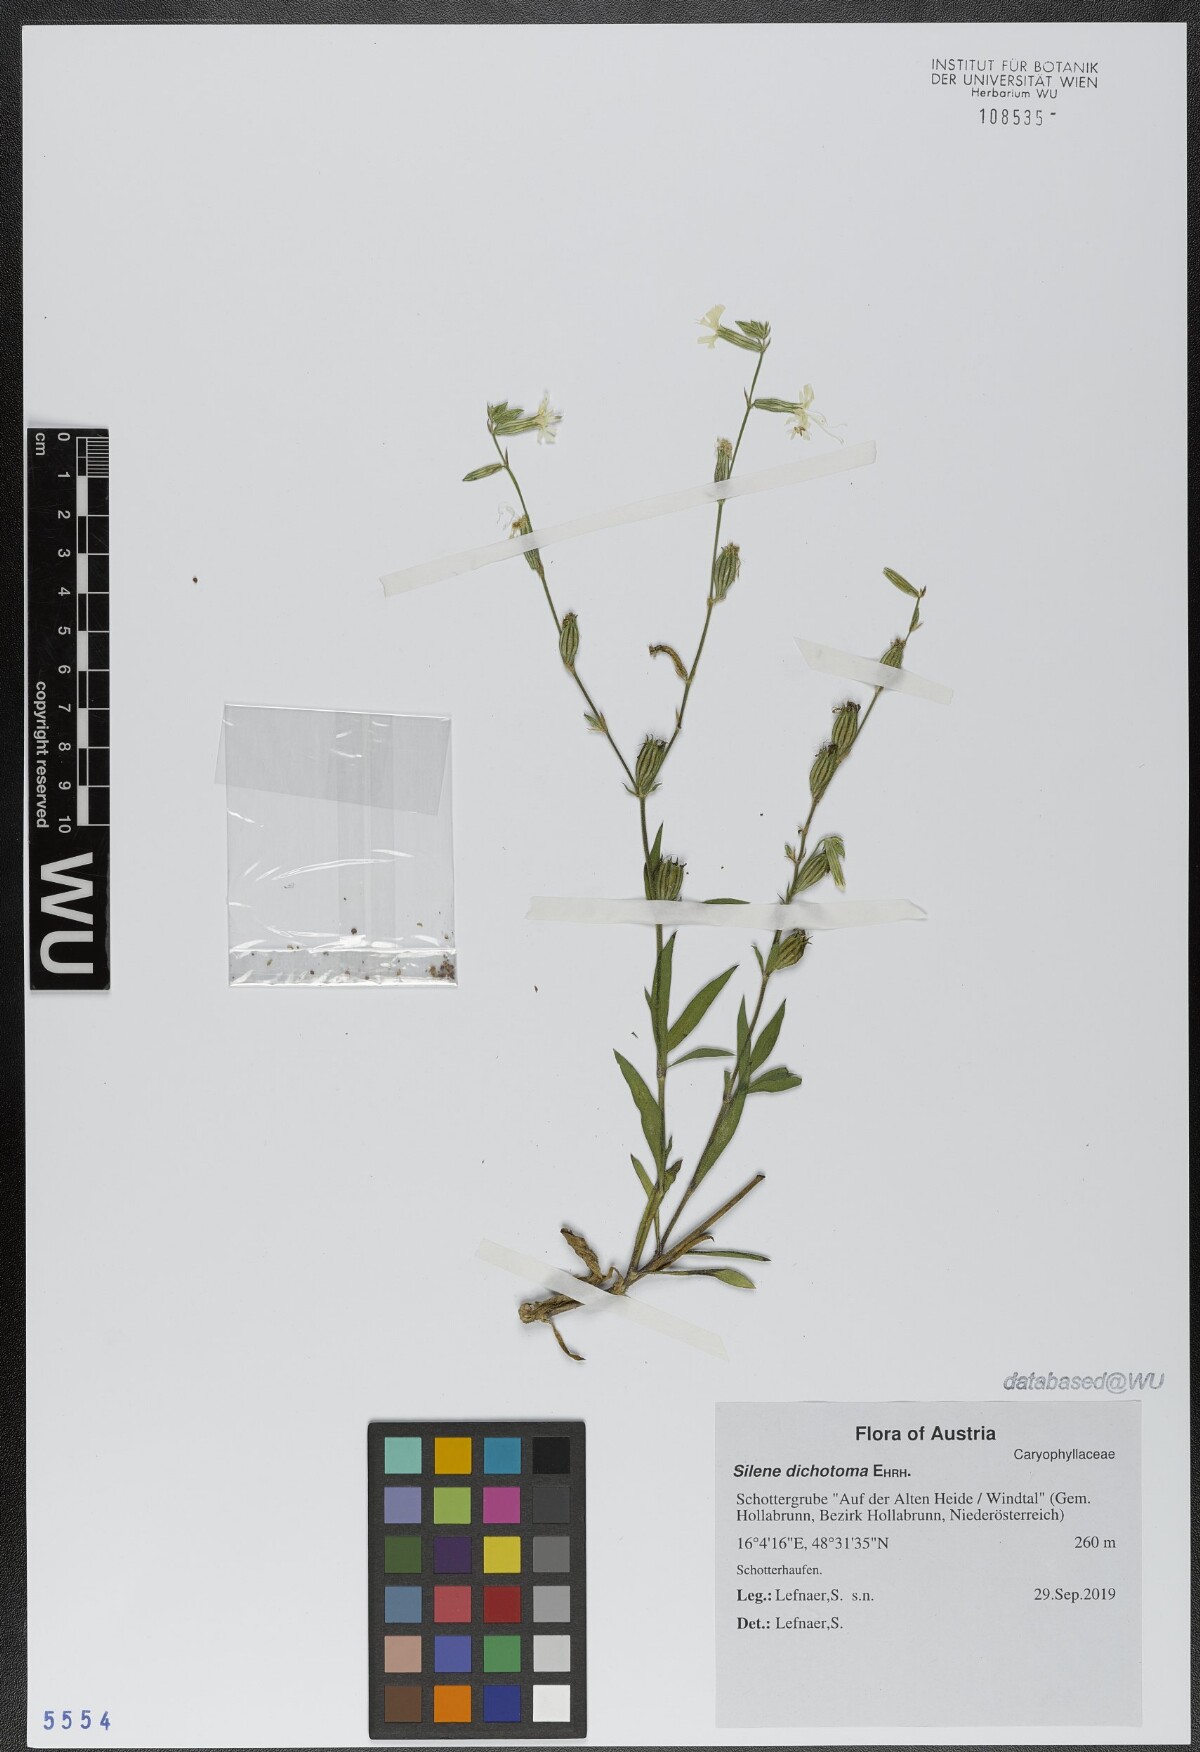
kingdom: Plantae
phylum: Tracheophyta
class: Magnoliopsida
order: Caryophyllales
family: Caryophyllaceae
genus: Silene
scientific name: Silene dichotoma
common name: Forked catchfly
